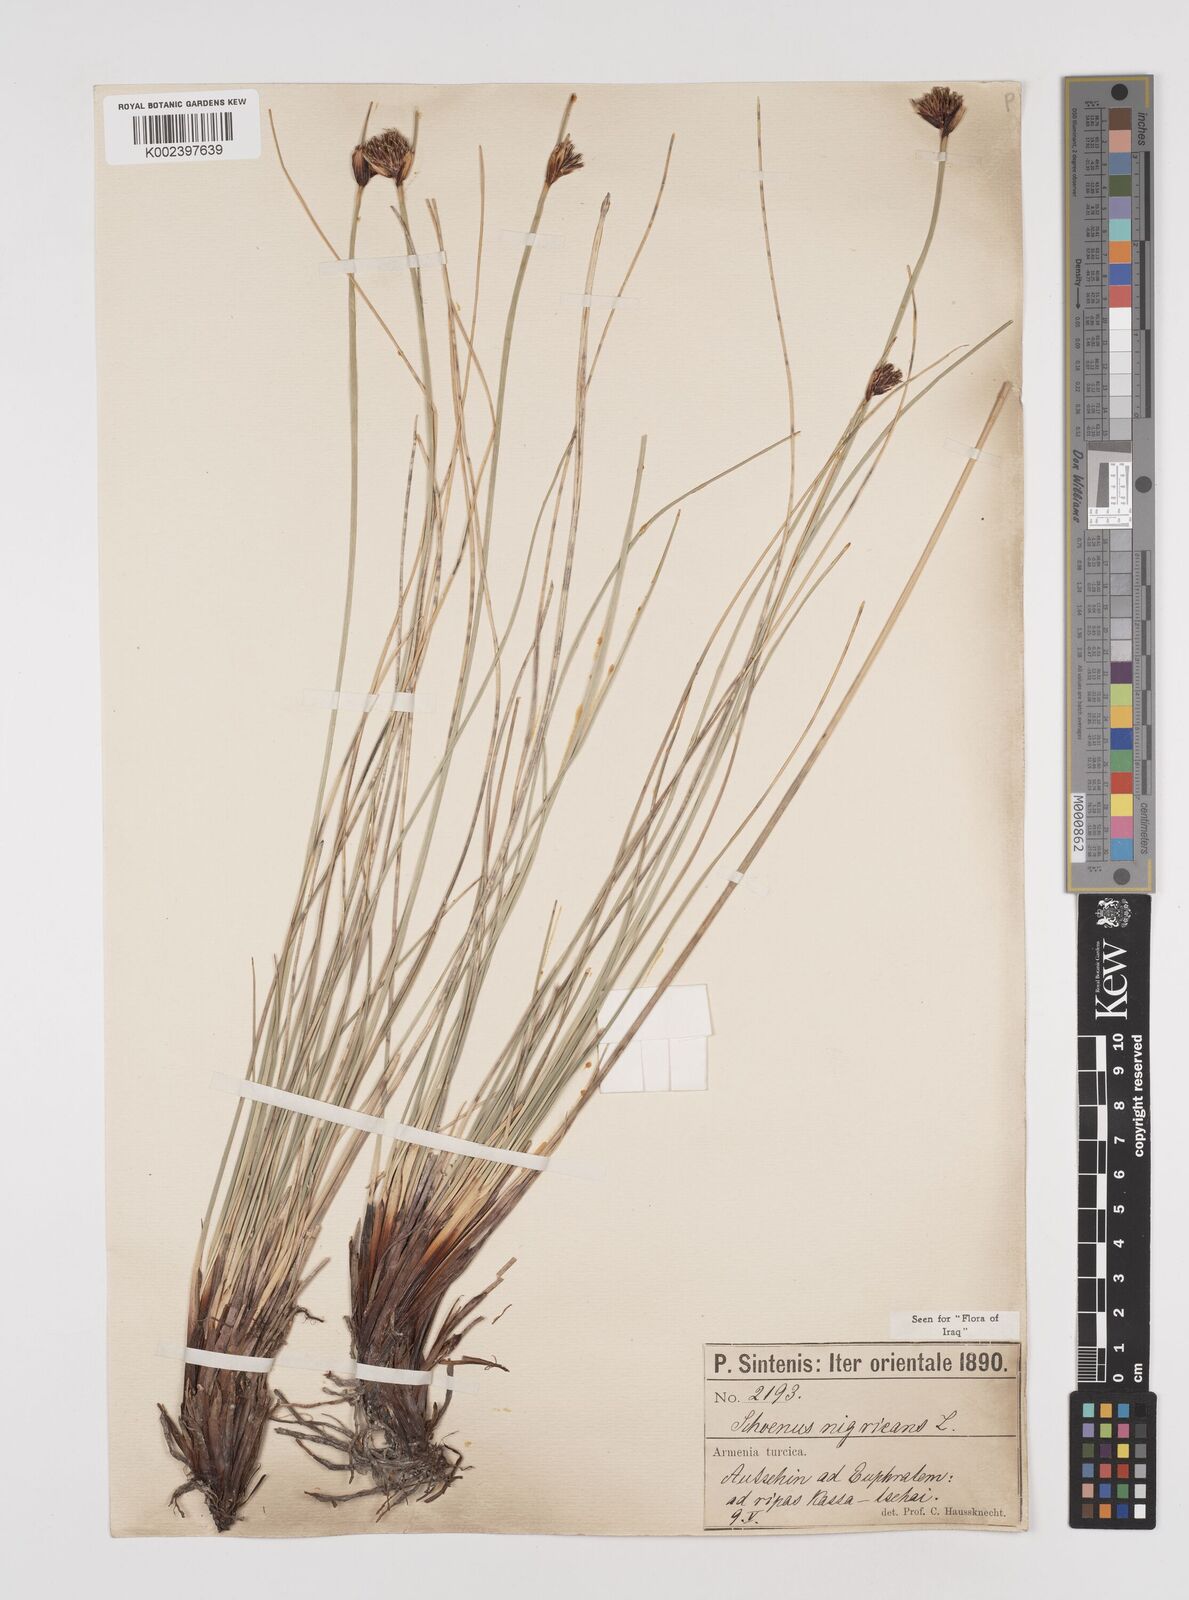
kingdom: Plantae
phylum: Tracheophyta
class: Liliopsida
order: Poales
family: Cyperaceae
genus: Schoenus
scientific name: Schoenus nigricans
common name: Black bog-rush
